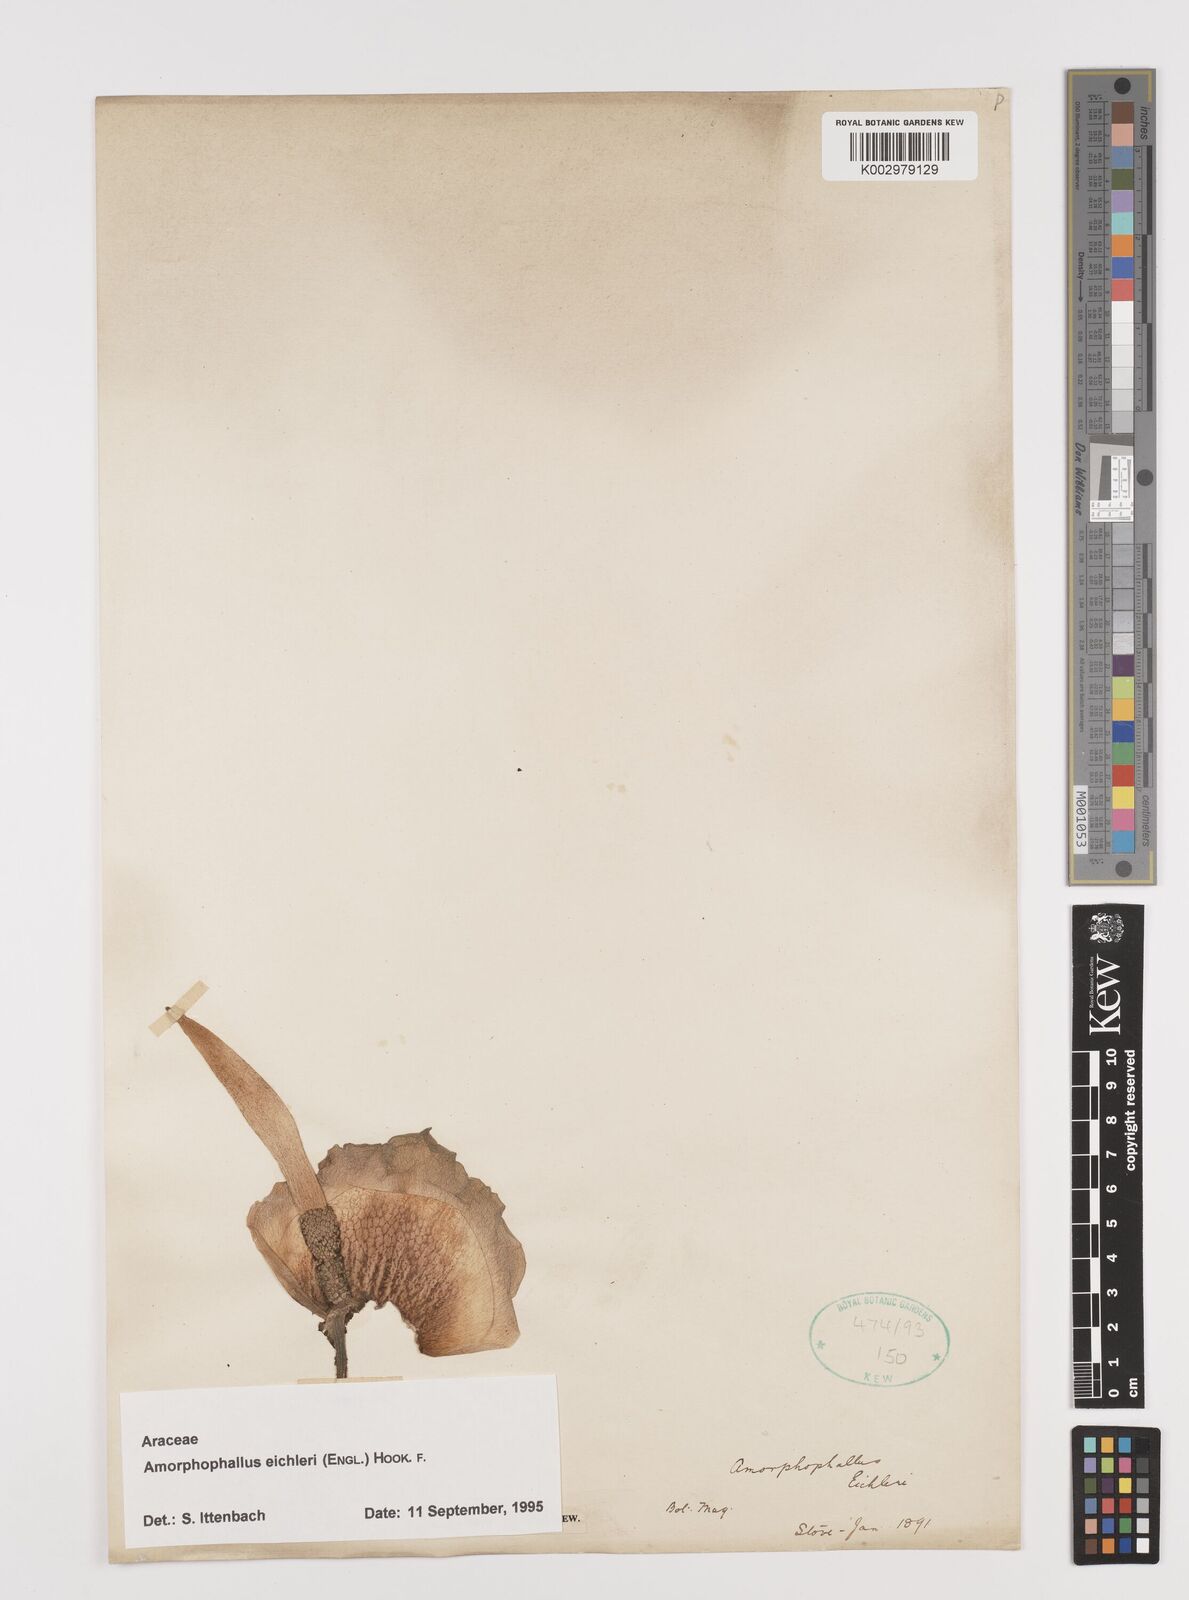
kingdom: Plantae
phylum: Tracheophyta
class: Liliopsida
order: Alismatales
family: Araceae
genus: Amorphophallus
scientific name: Amorphophallus eichleri
